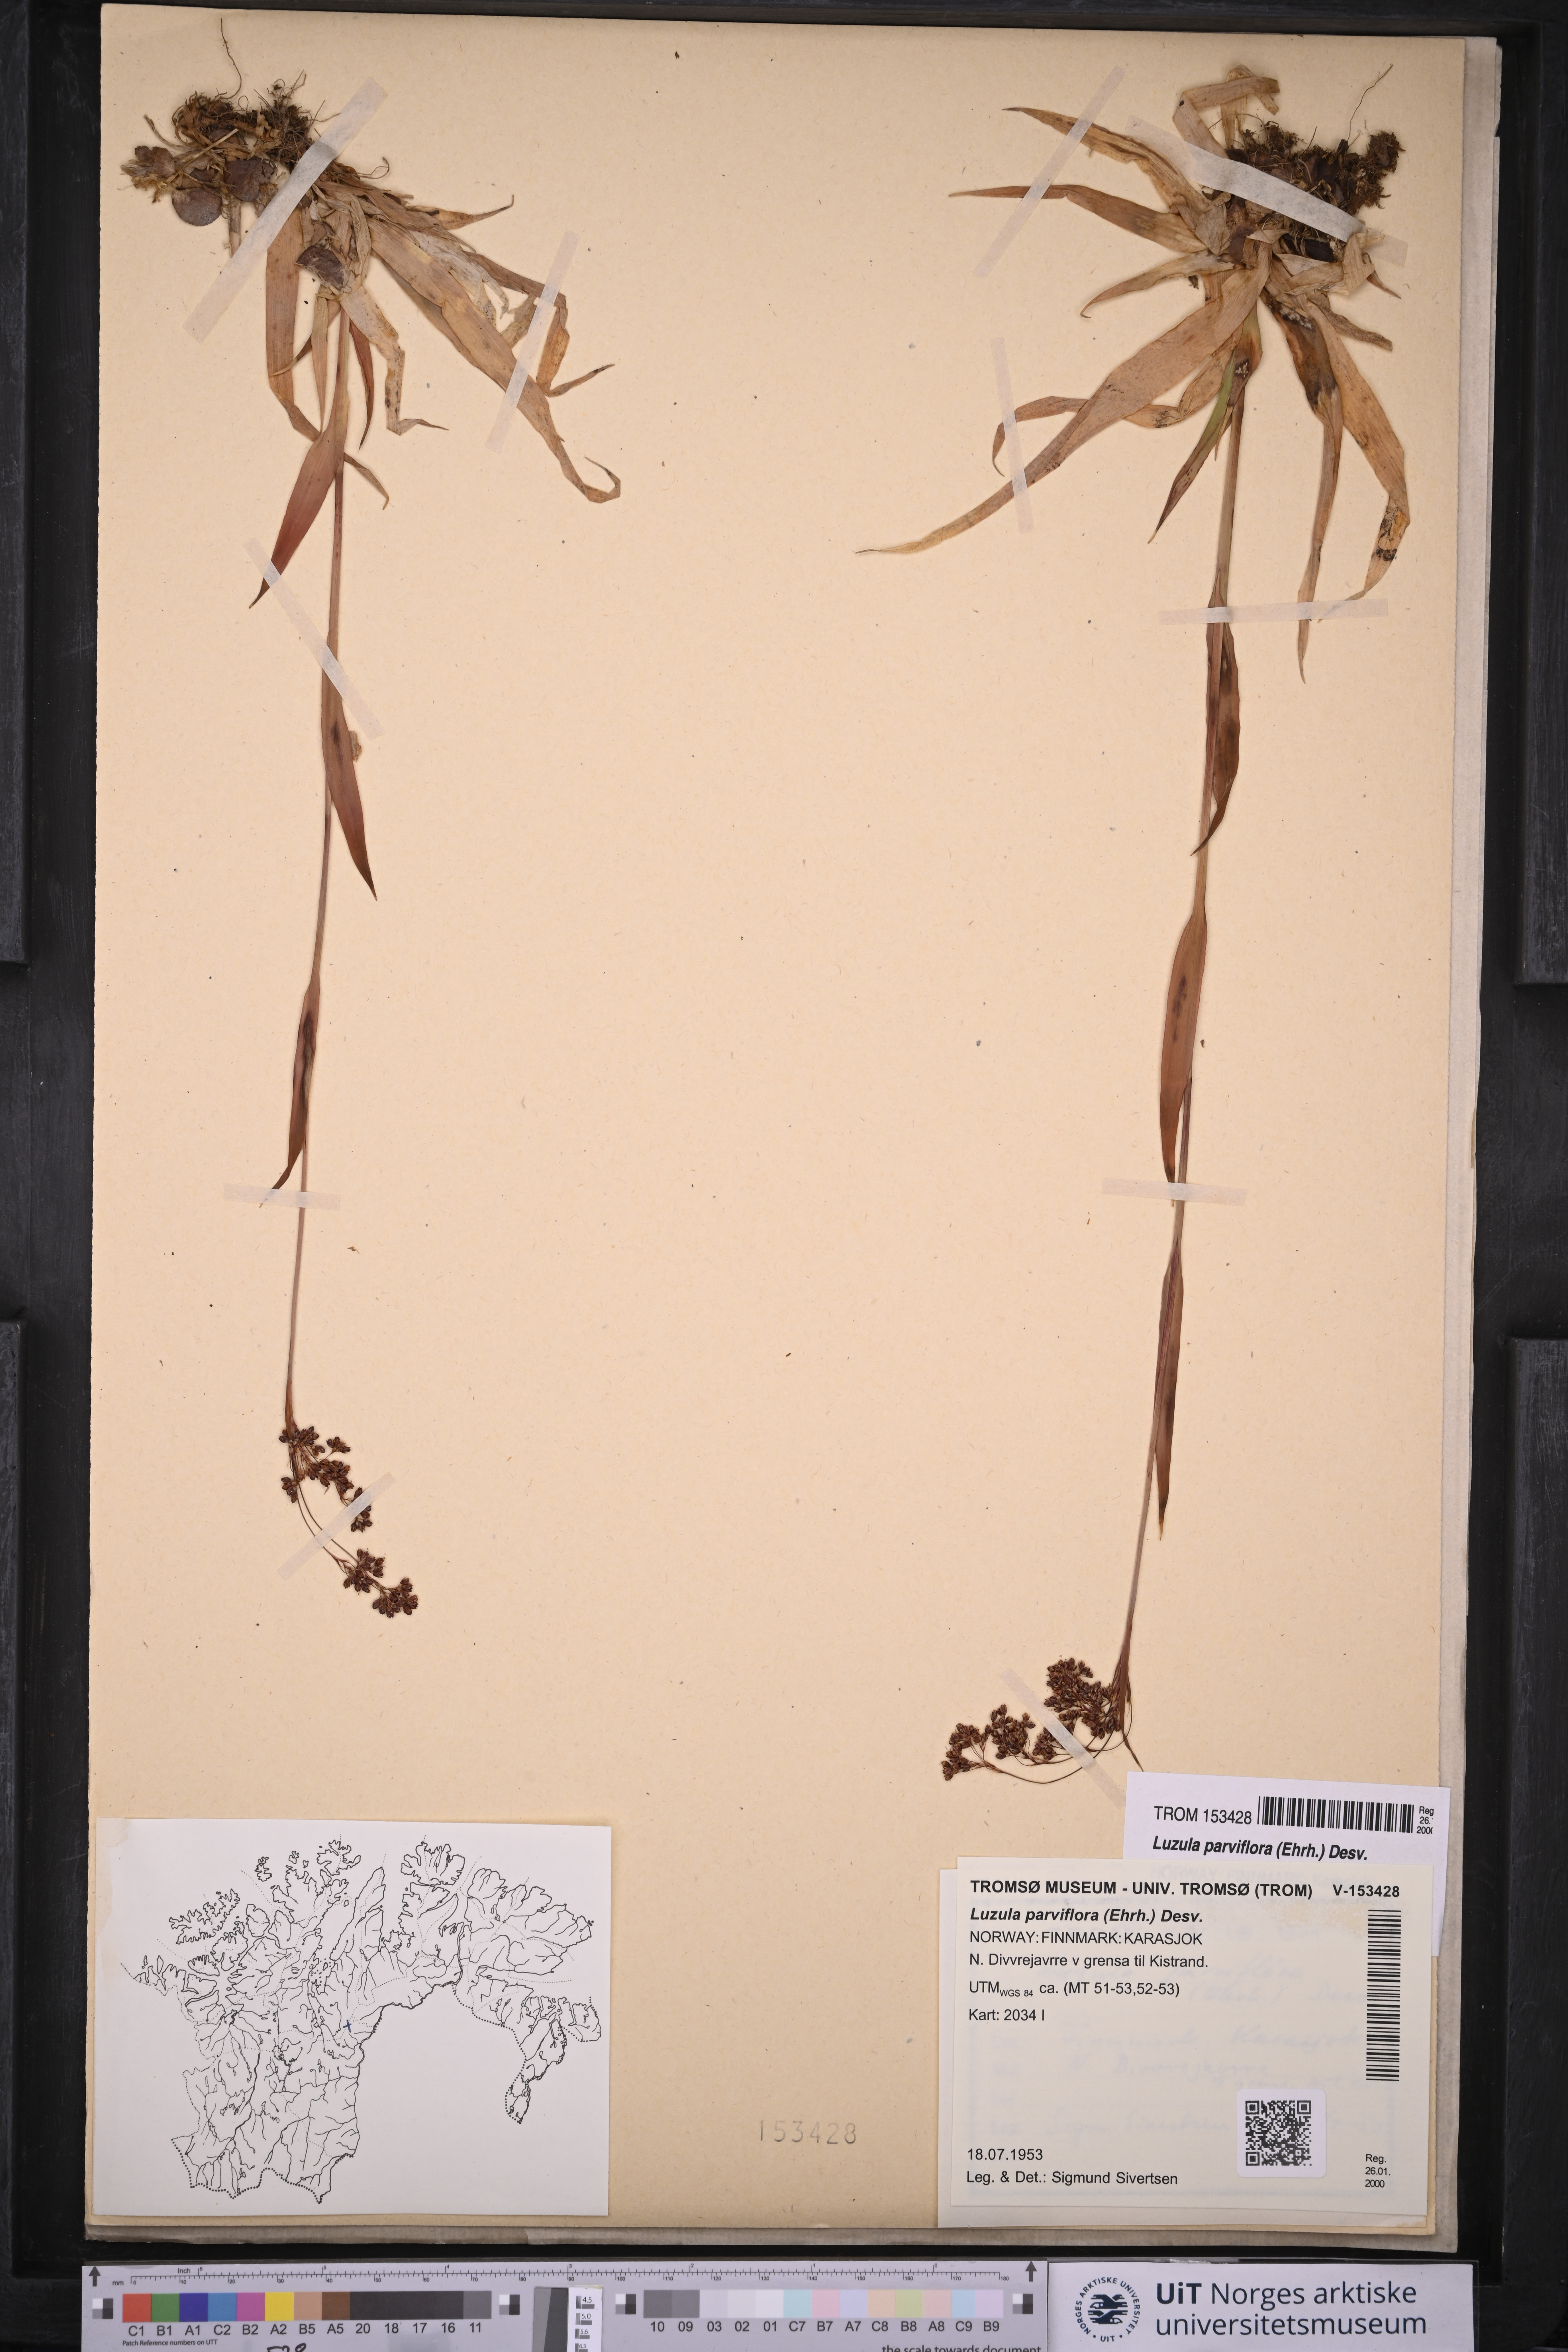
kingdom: Plantae
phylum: Tracheophyta
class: Liliopsida
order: Poales
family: Juncaceae
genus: Luzula
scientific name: Luzula parviflora
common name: Millet woodrush
